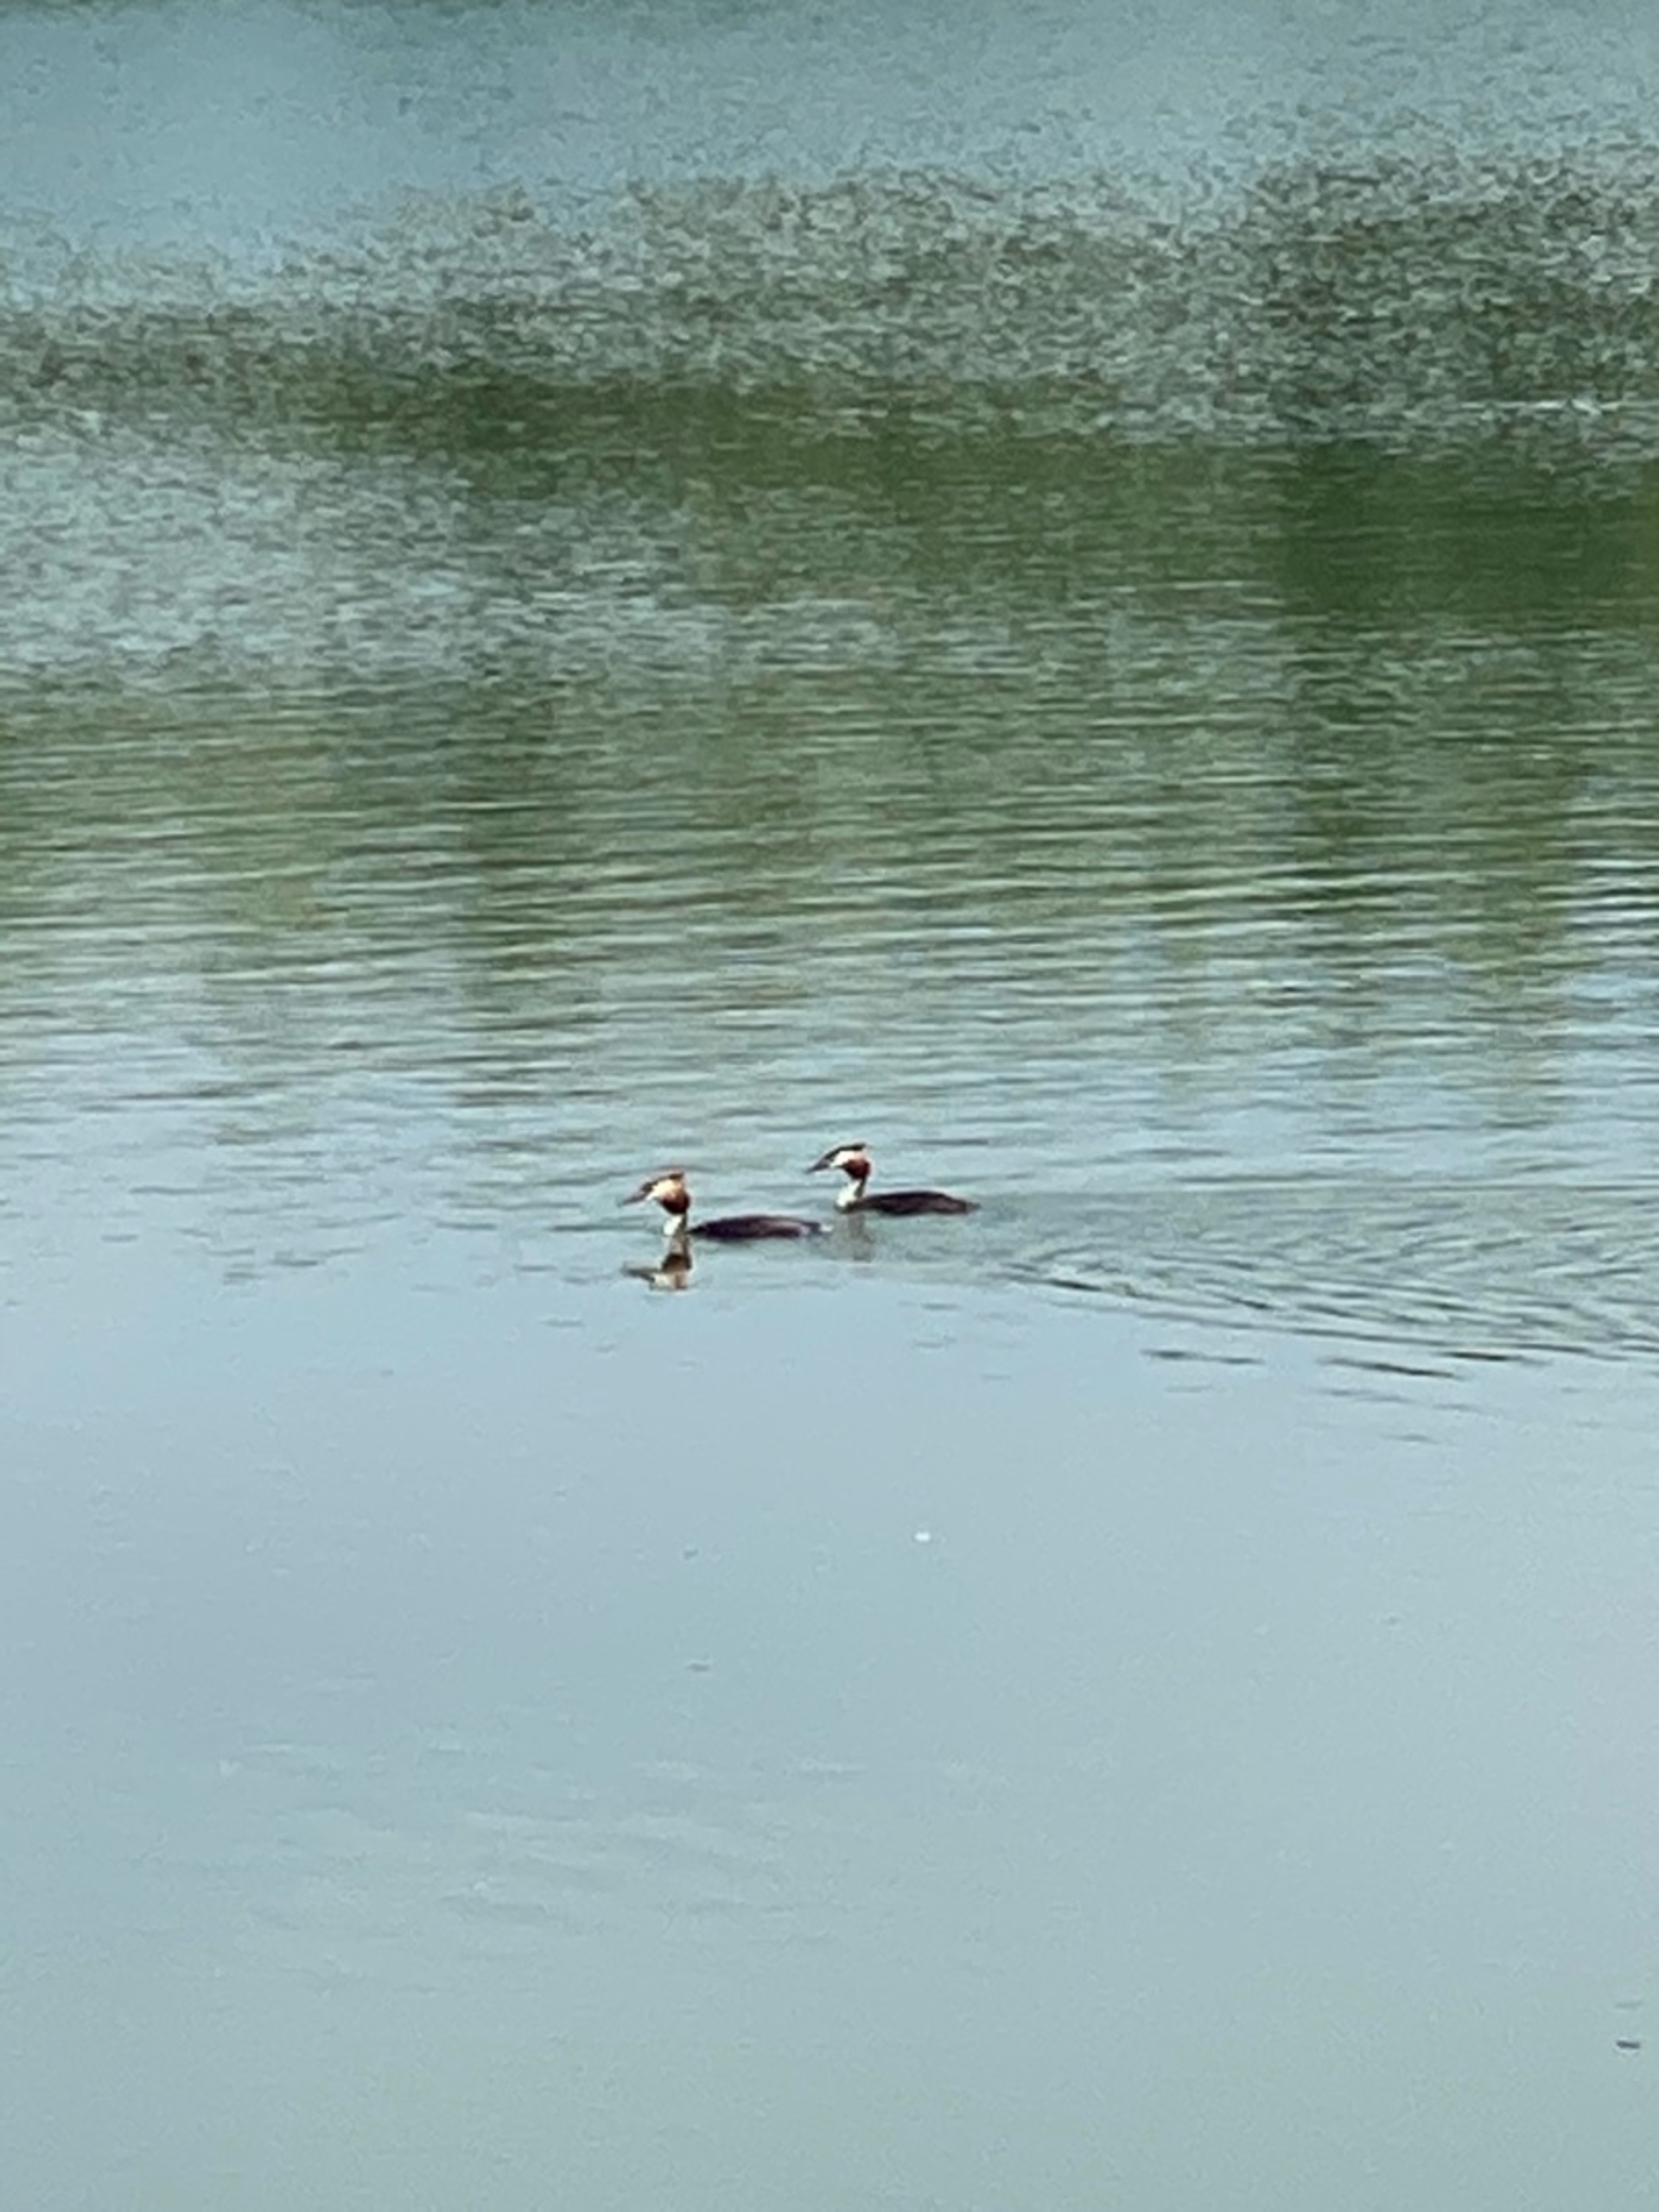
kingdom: Animalia
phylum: Chordata
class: Aves
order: Podicipediformes
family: Podicipedidae
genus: Podiceps
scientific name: Podiceps cristatus
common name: Toppet lappedykker
